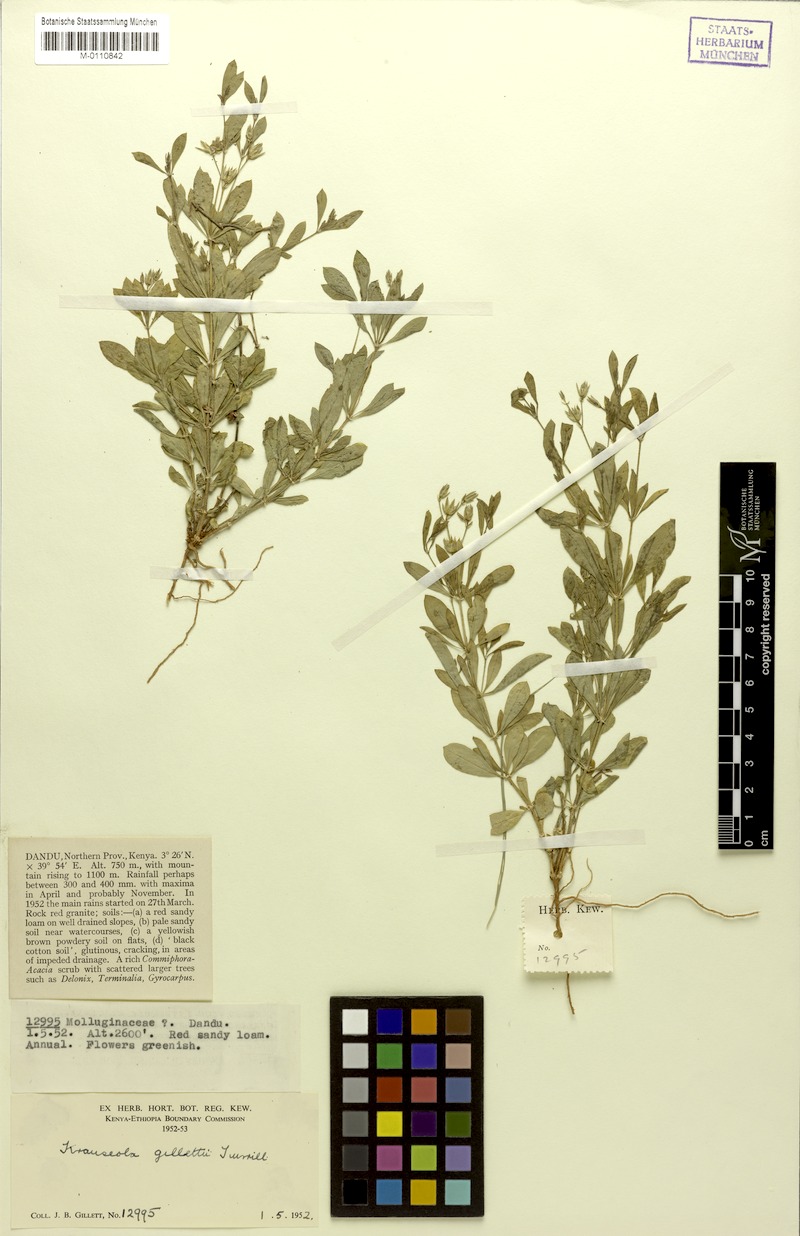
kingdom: Plantae
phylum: Tracheophyta
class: Magnoliopsida
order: Caryophyllales
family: Caryophyllaceae
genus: Krauseola
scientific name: Krauseola gillettii
